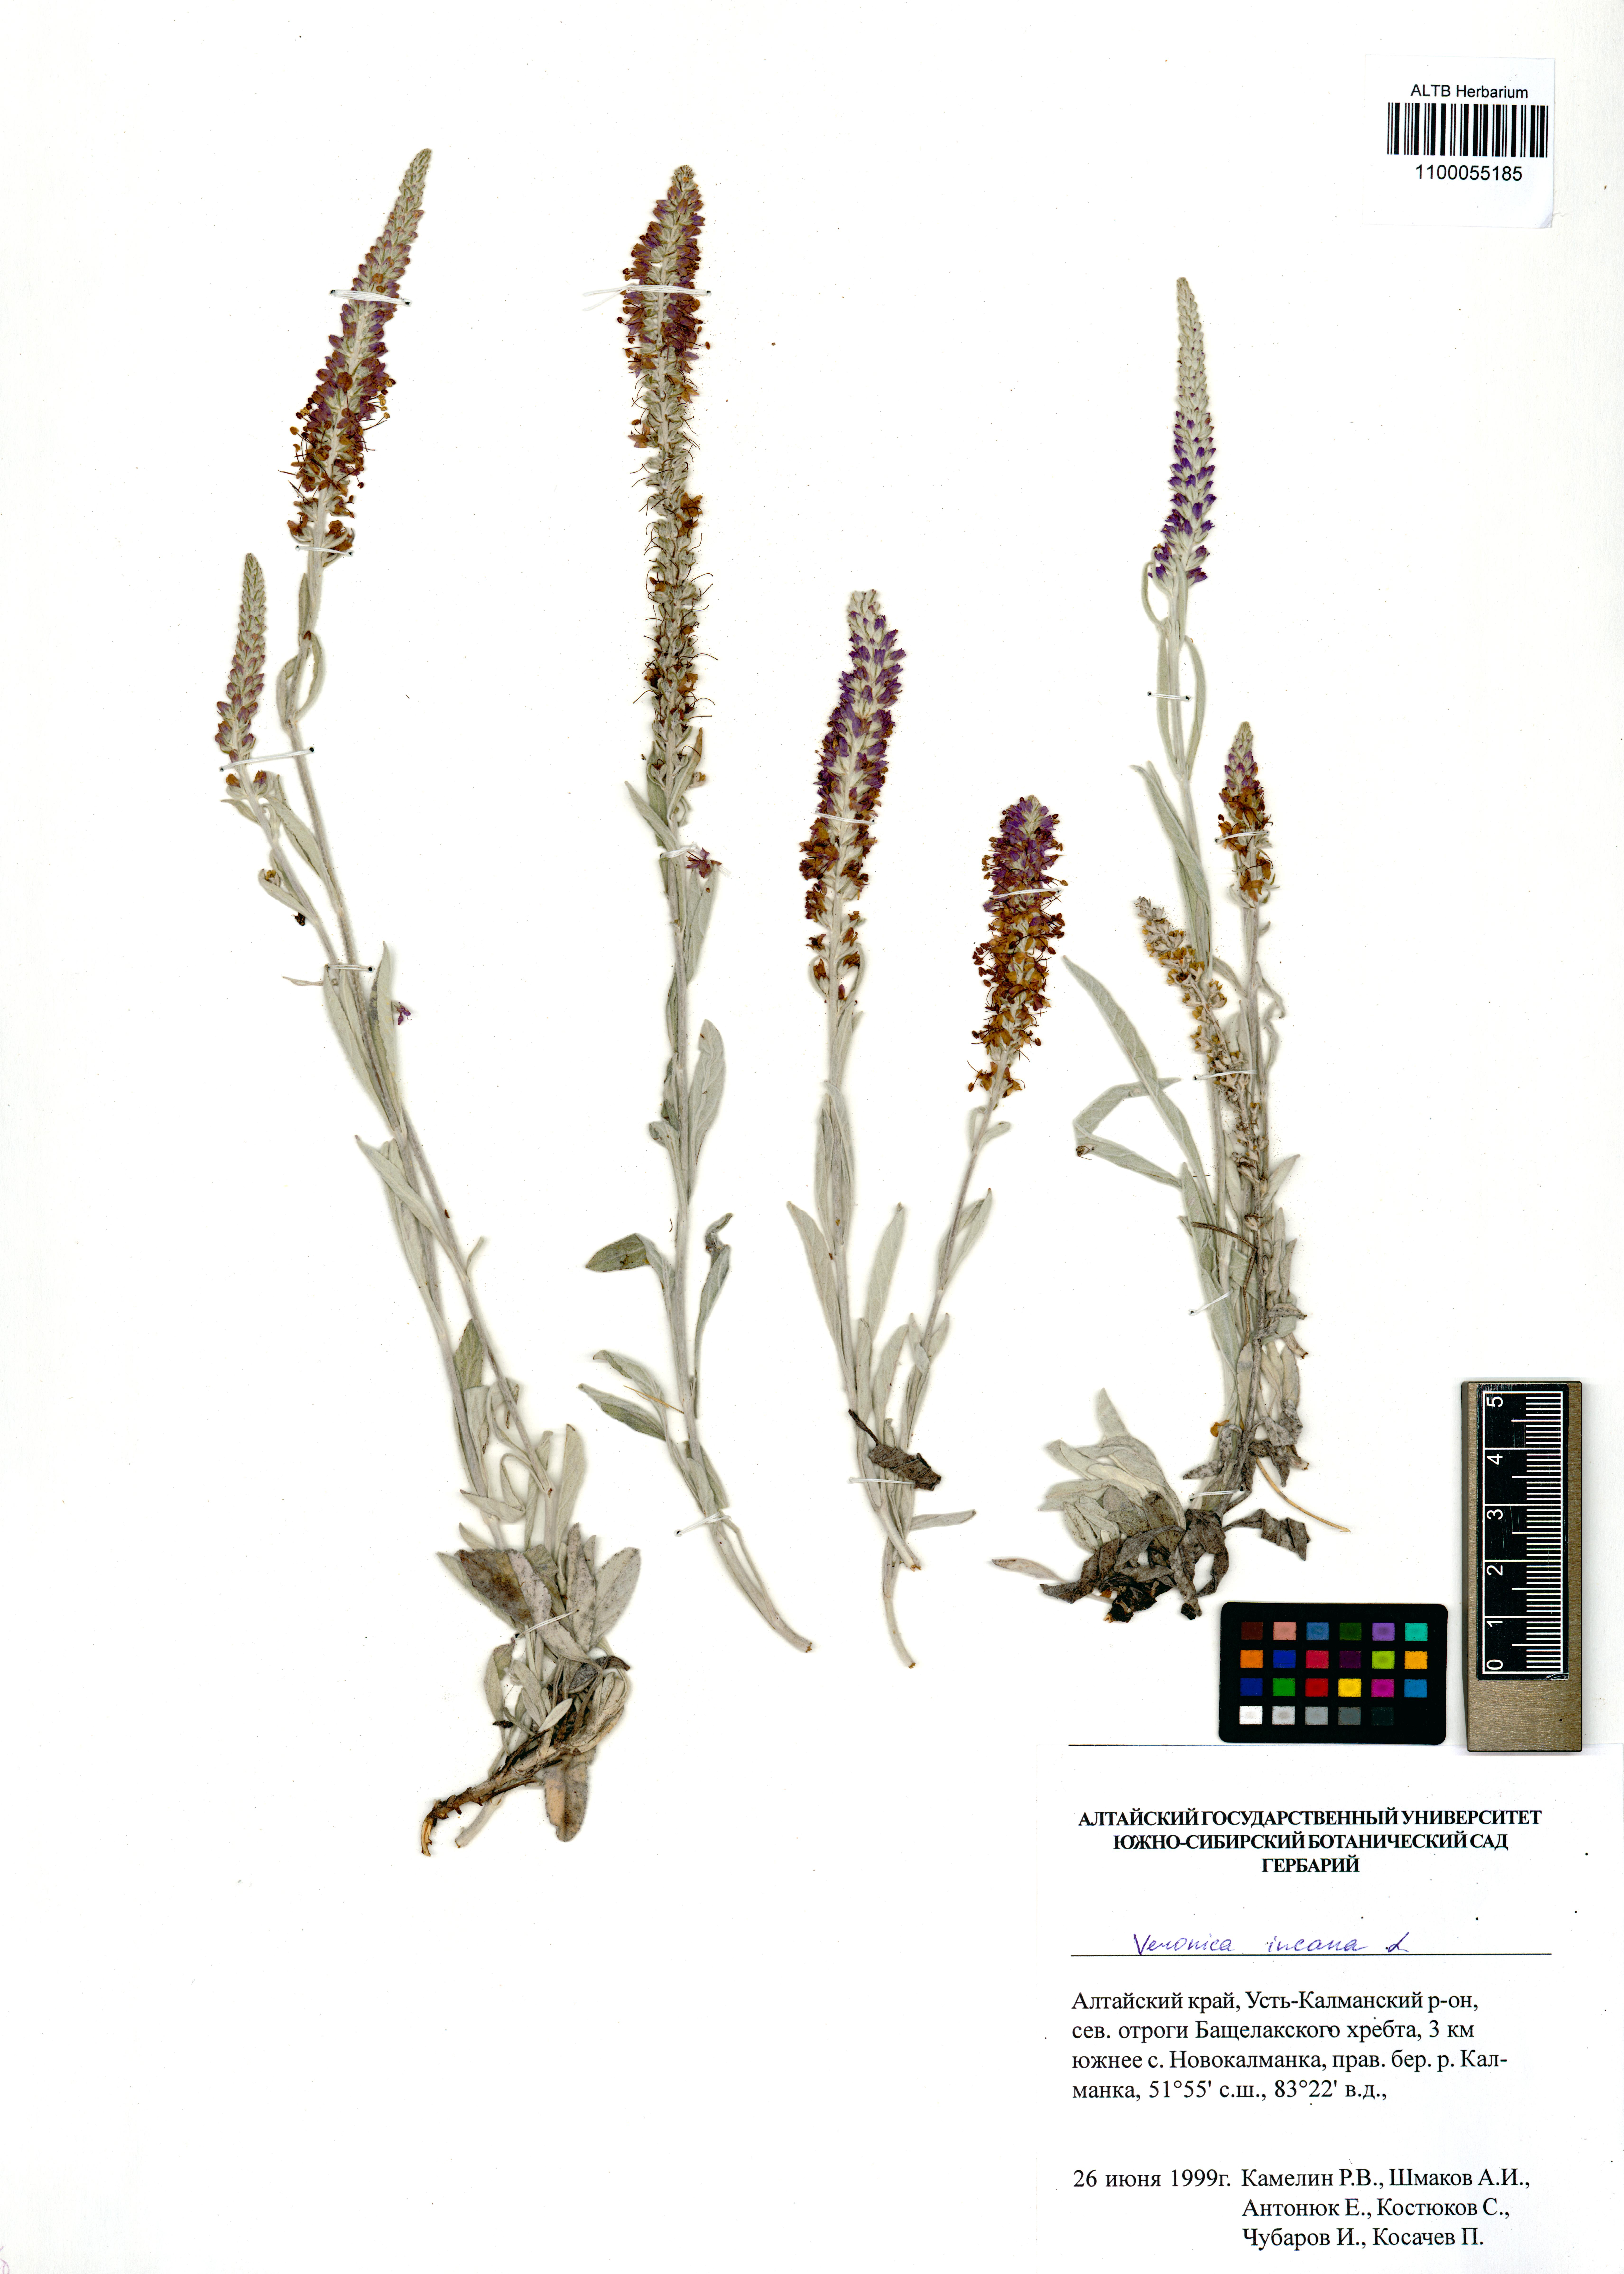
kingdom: Plantae
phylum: Tracheophyta
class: Magnoliopsida
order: Lamiales
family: Plantaginaceae
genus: Veronica
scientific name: Veronica incana
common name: Silver speedwell
